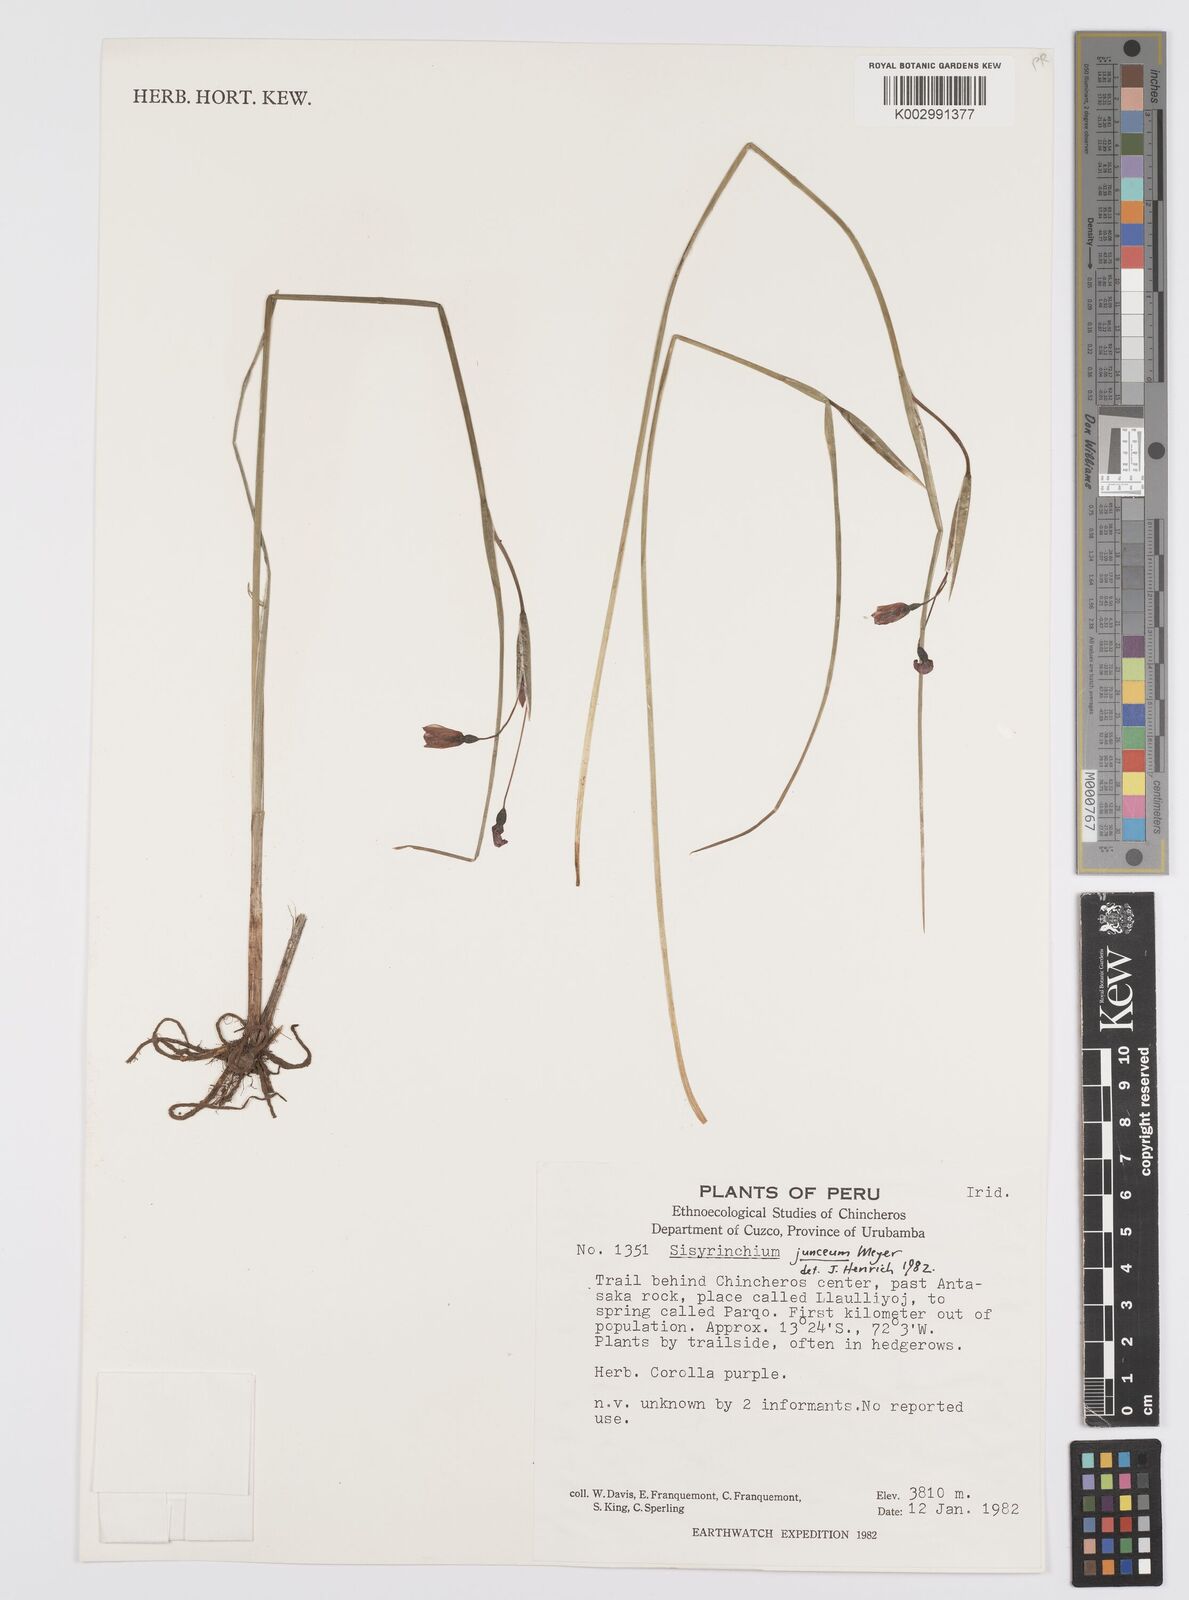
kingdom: Plantae
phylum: Tracheophyta
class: Liliopsida
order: Asparagales
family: Iridaceae
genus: Olsynium
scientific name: Olsynium
